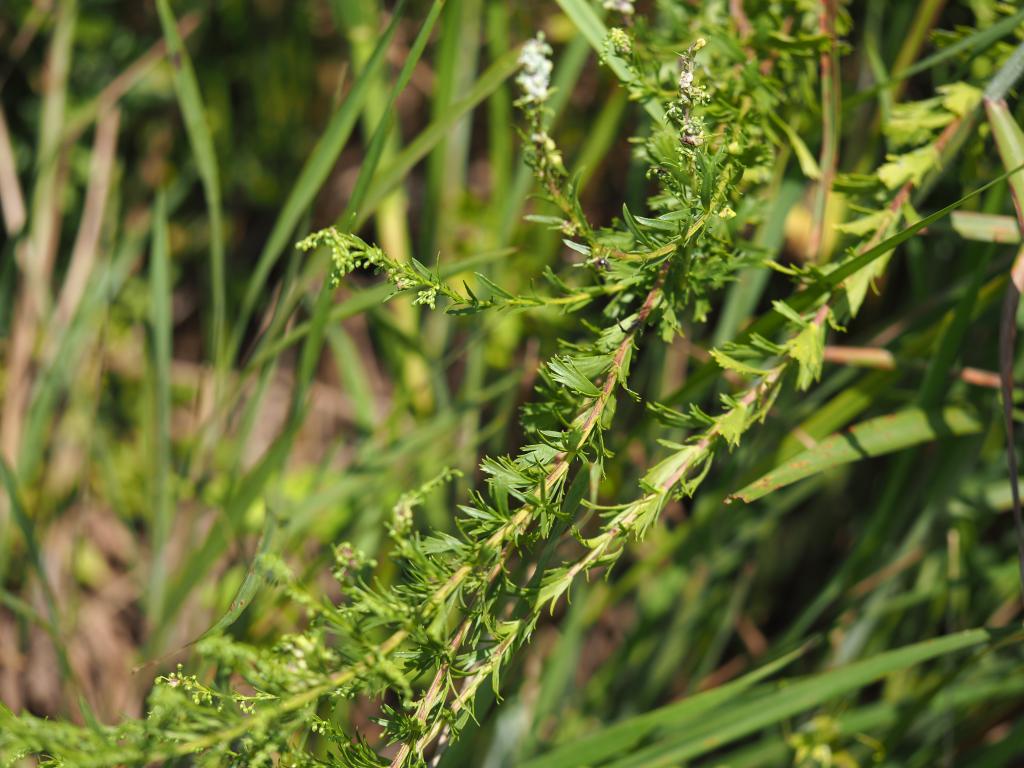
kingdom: Plantae
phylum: Tracheophyta
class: Magnoliopsida
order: Asterales
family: Asteraceae
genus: Artemisia
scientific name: Artemisia japonica
